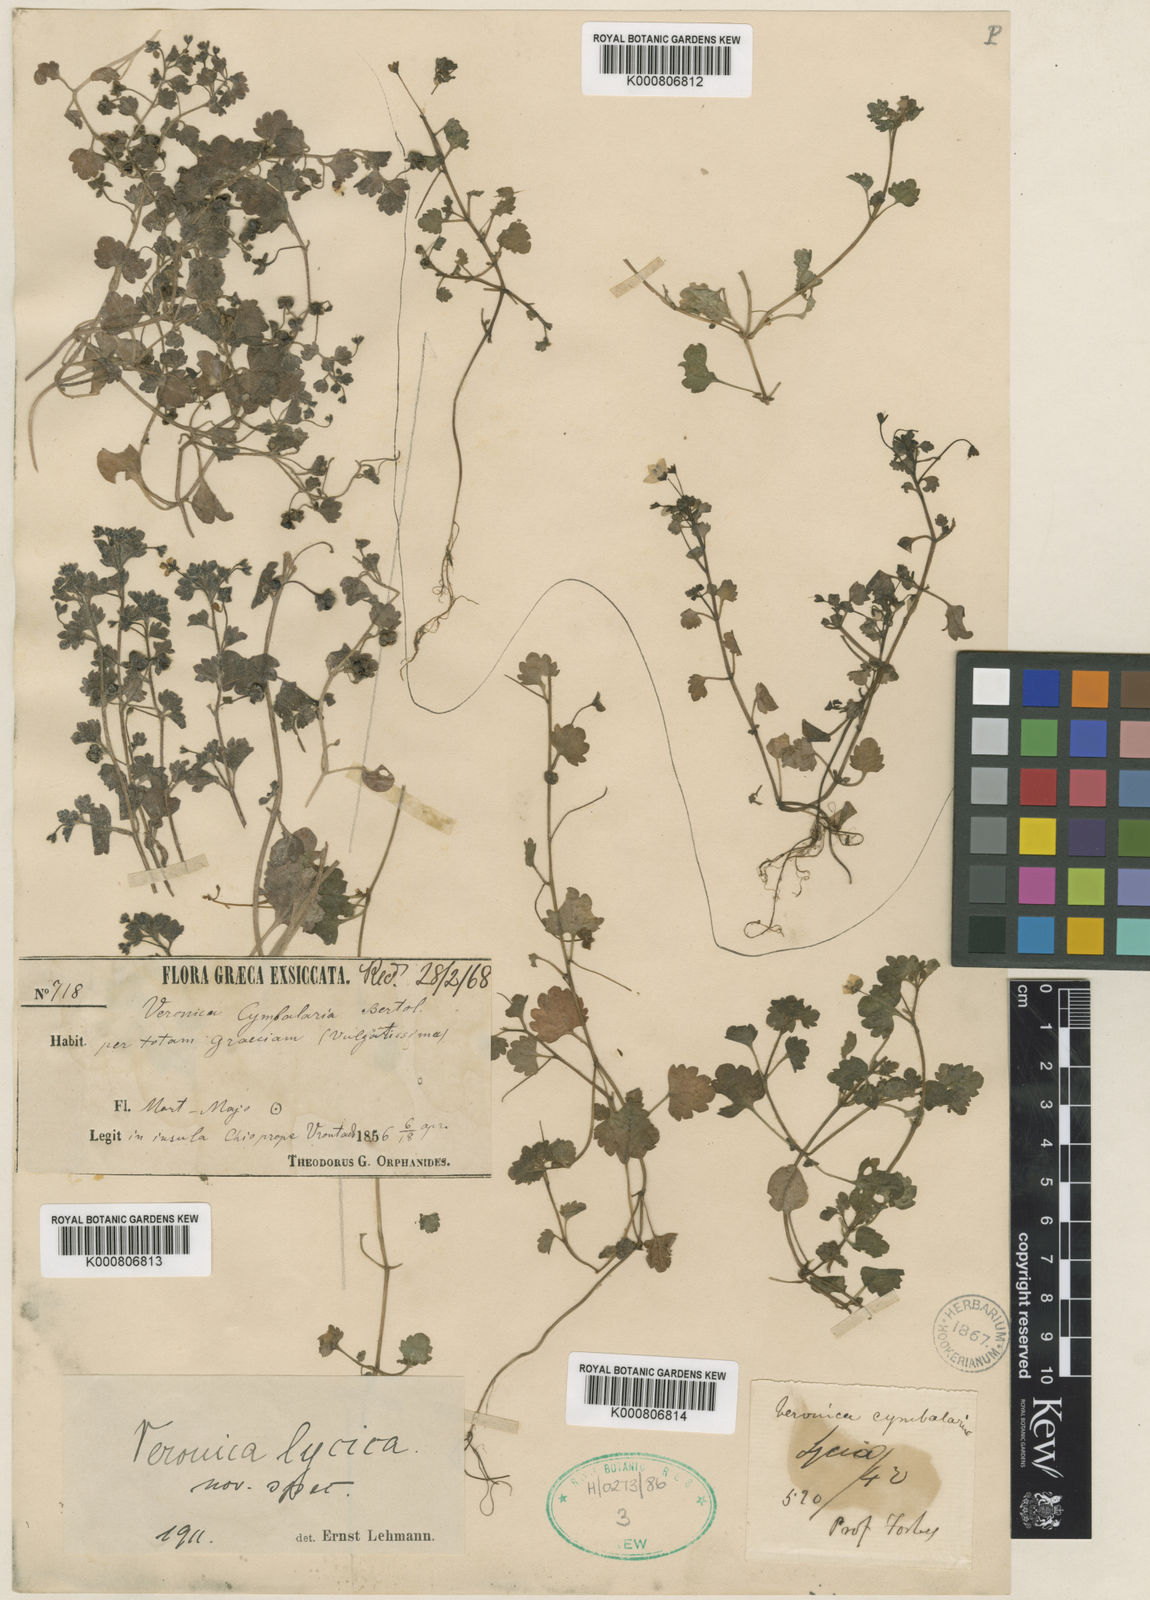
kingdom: Plantae
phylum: Tracheophyta
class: Magnoliopsida
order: Lamiales
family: Plantaginaceae
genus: Veronica
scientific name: Veronica
